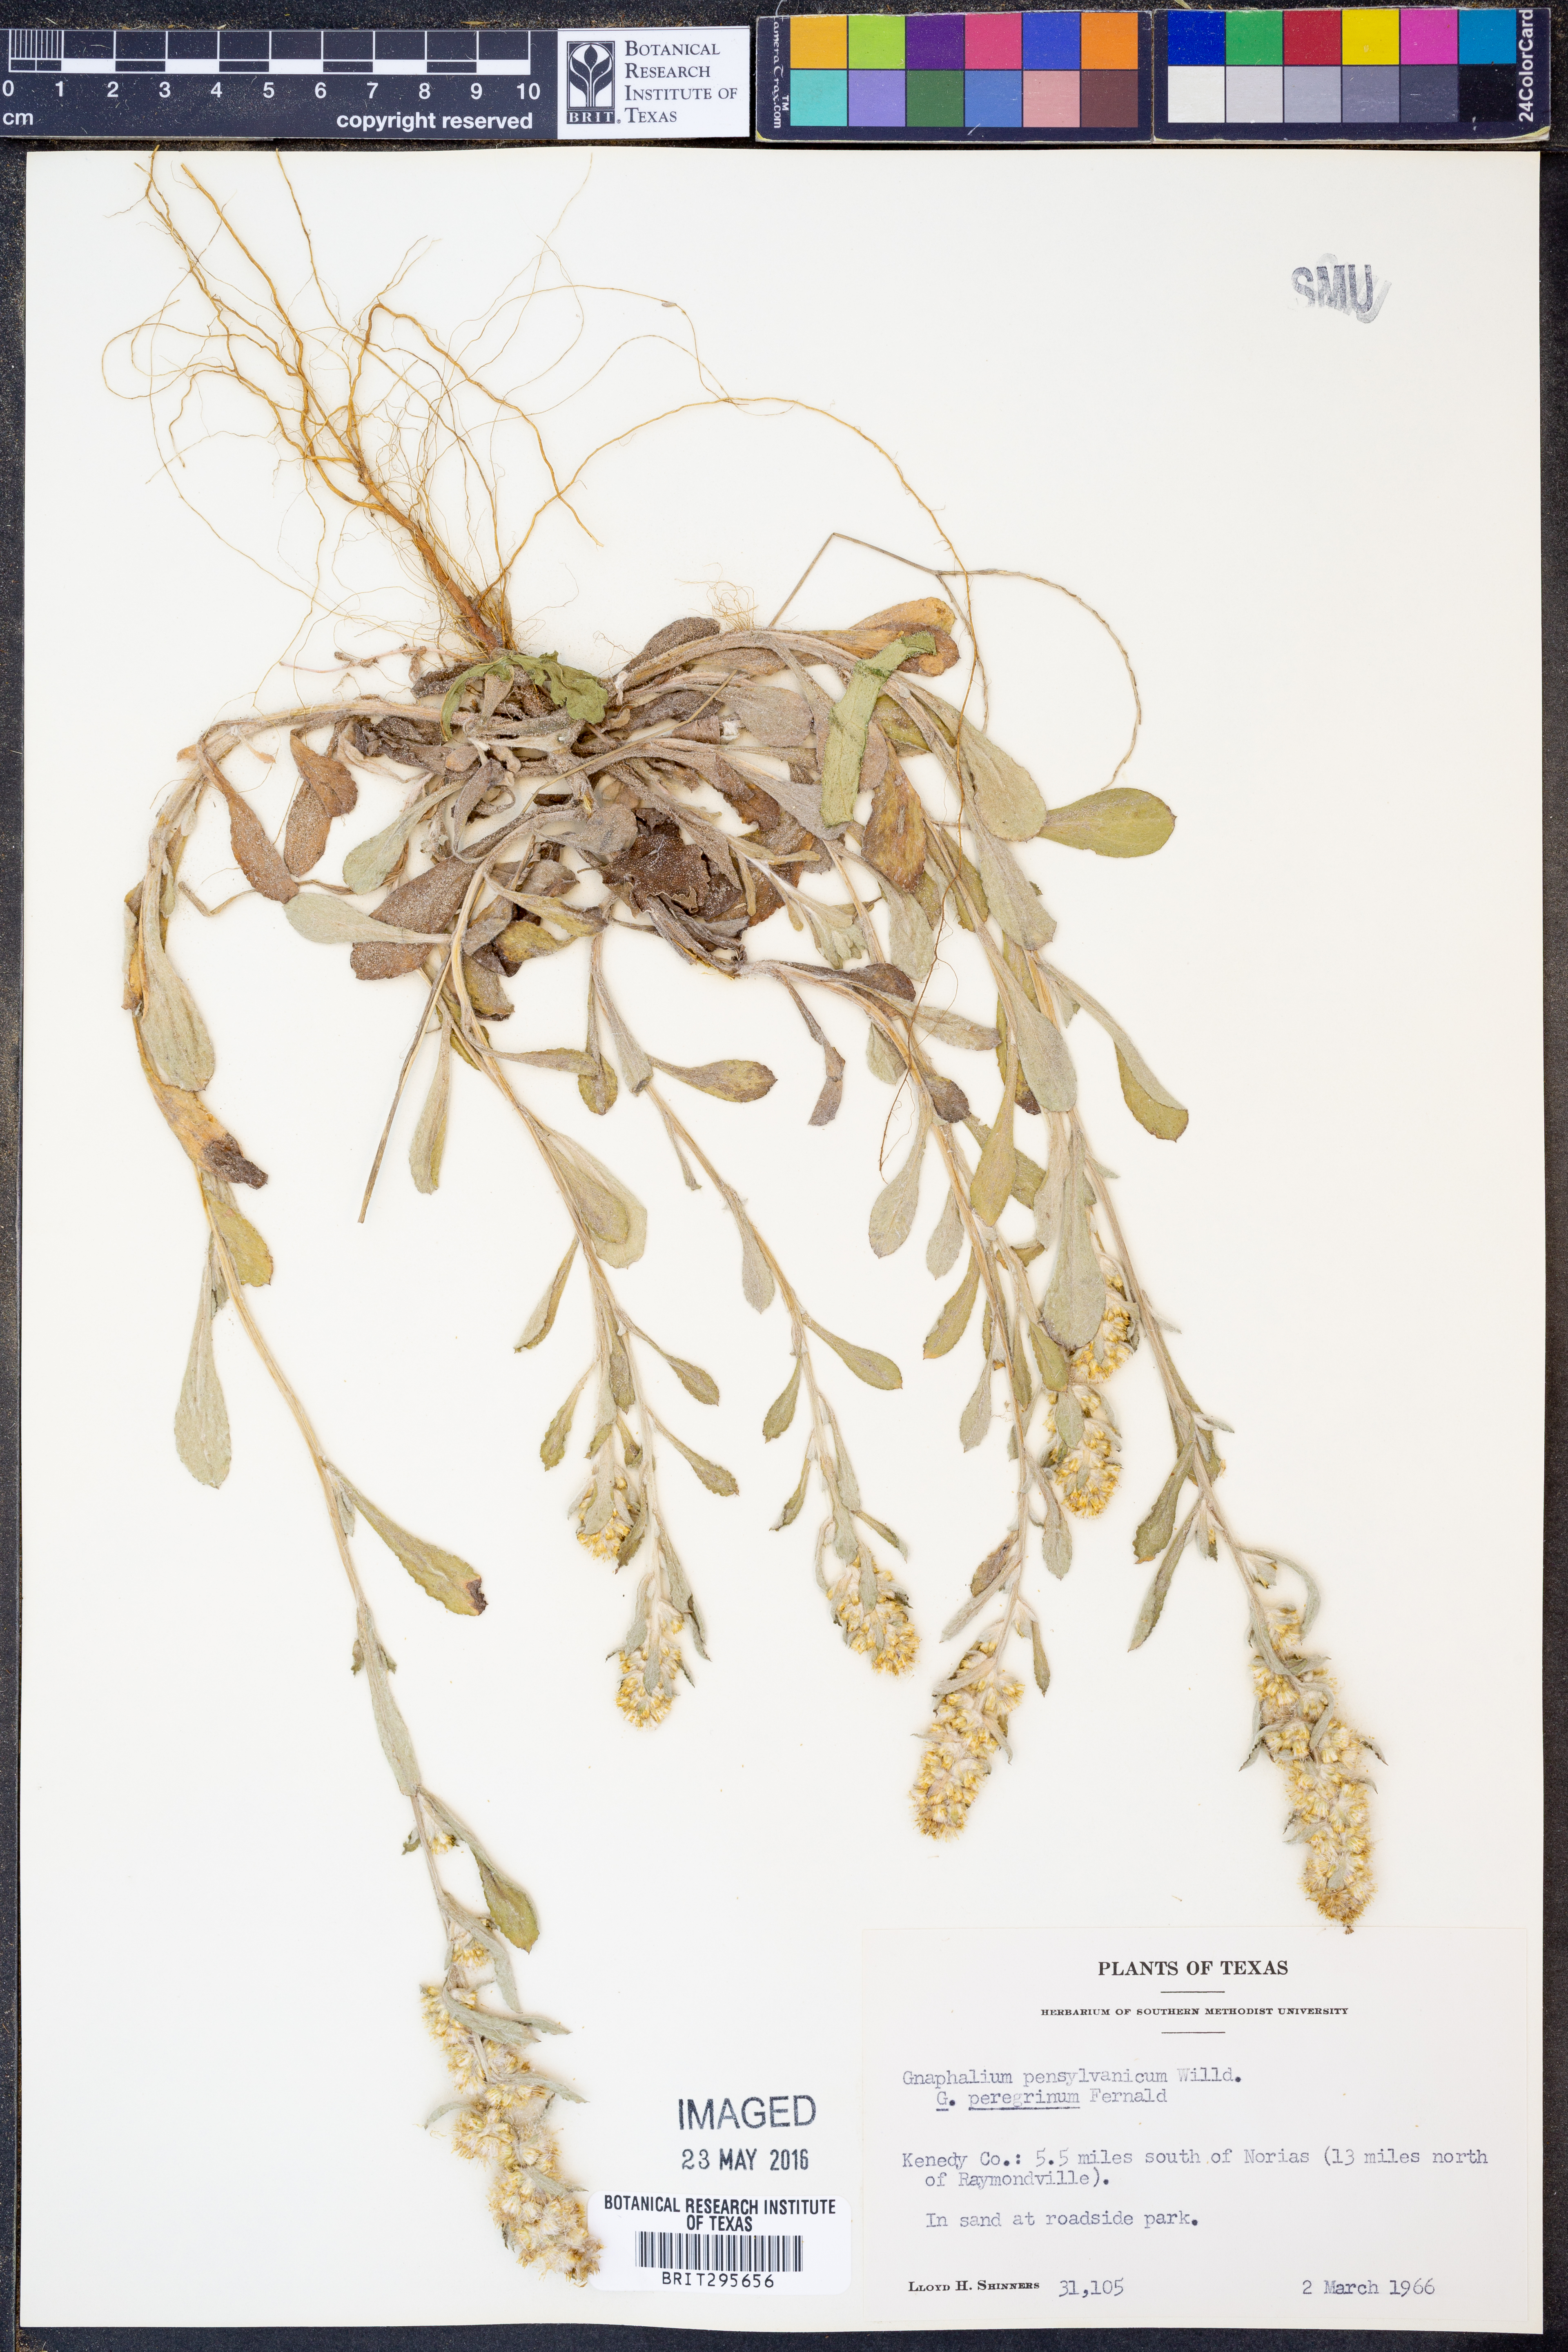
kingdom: Plantae
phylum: Tracheophyta
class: Magnoliopsida
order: Asterales
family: Asteraceae
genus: Gamochaeta
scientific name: Gamochaeta pensylvanica
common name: Pennsylvania everlasting
